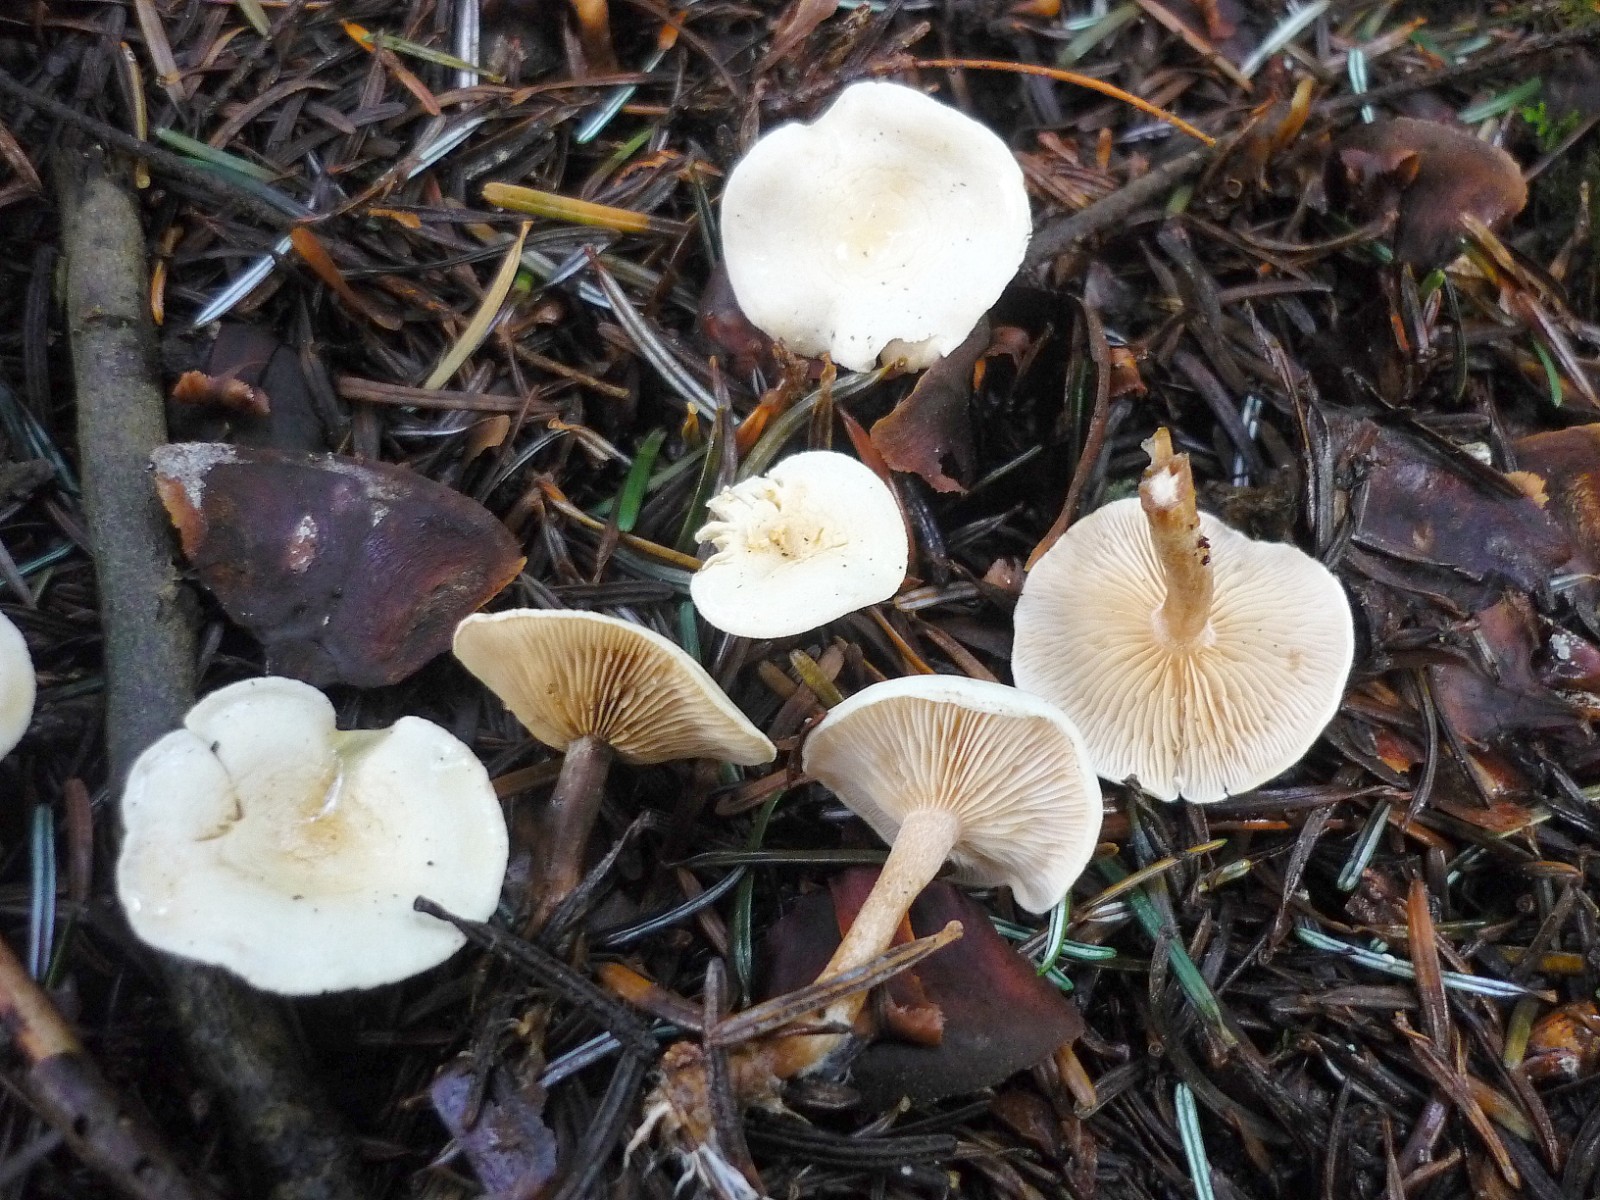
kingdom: Fungi
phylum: Basidiomycota
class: Agaricomycetes
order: Agaricales
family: Tricholomataceae
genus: Ripartites
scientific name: Ripartites tricholoma
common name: almindelig skæghat
